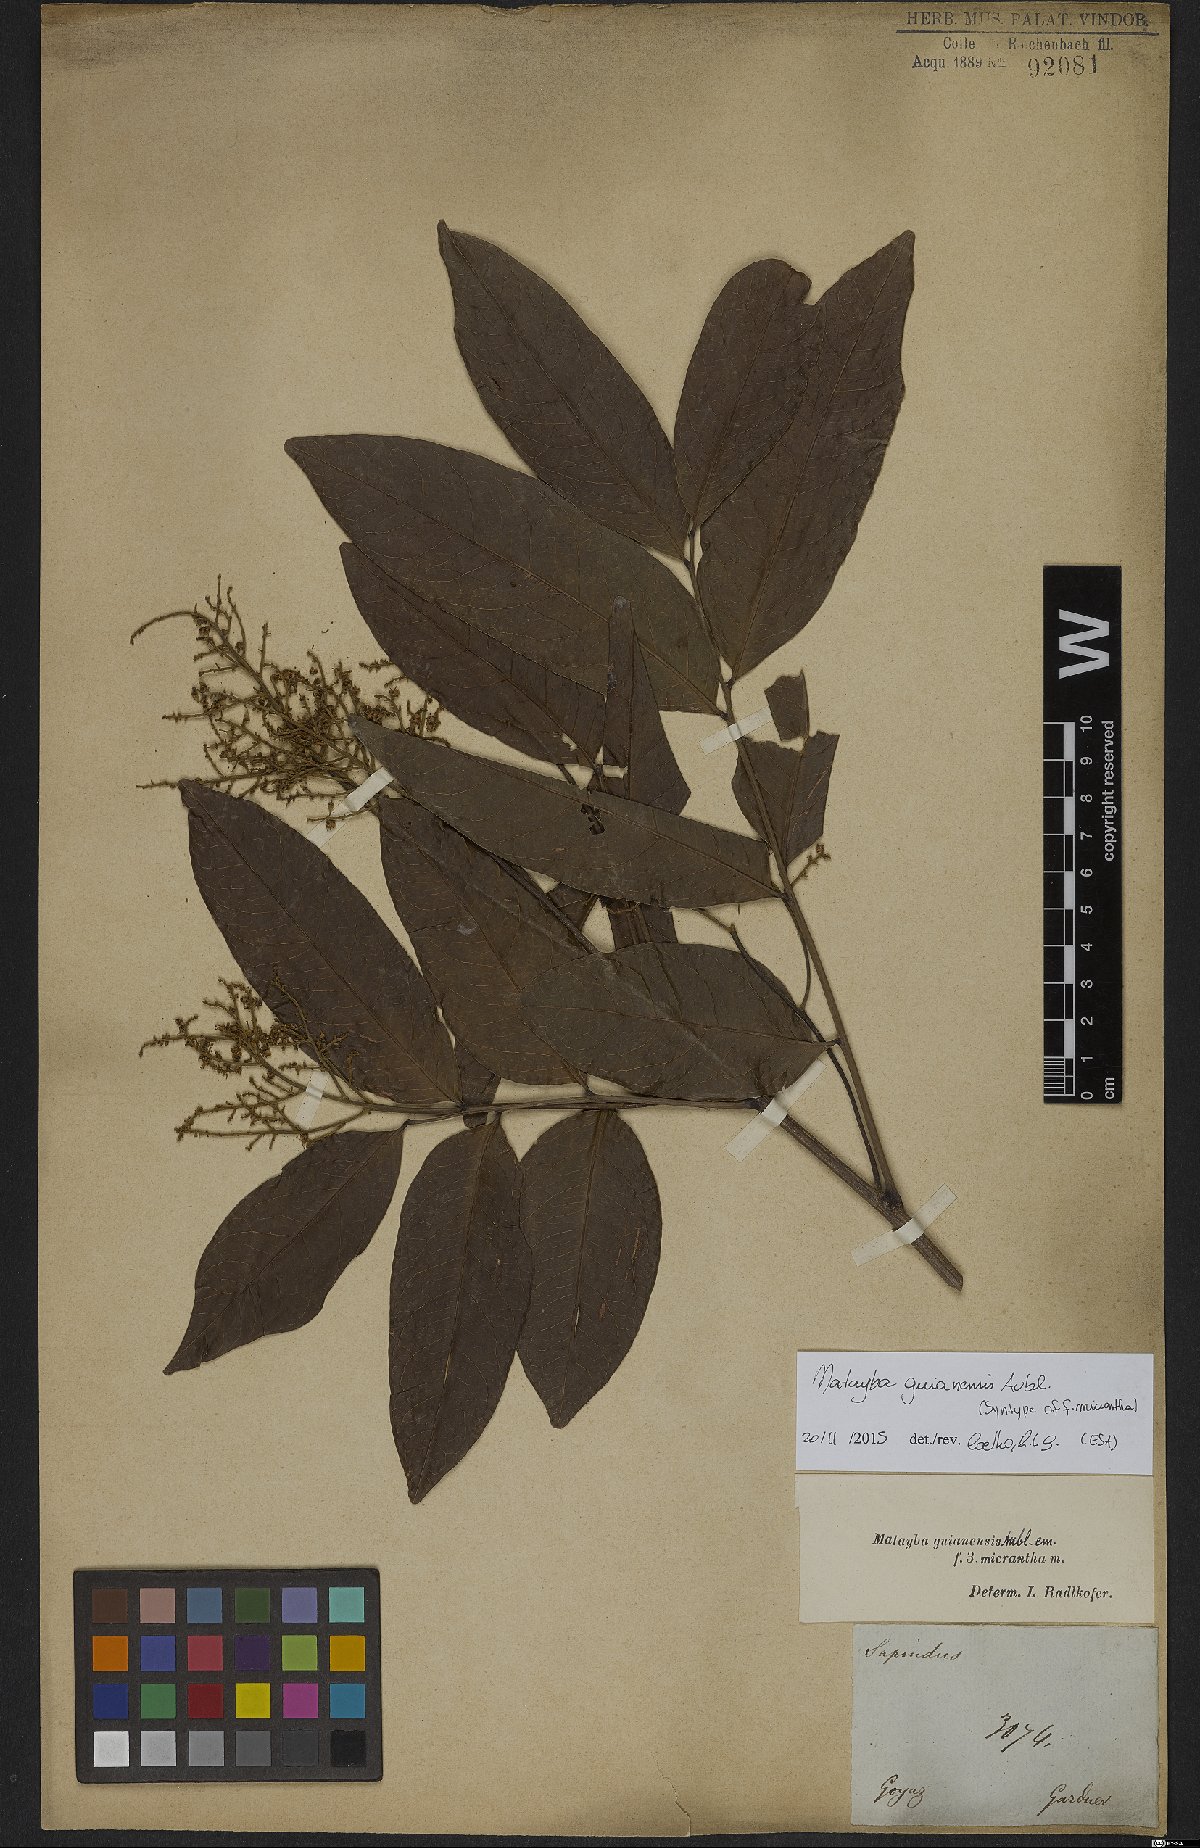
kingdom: Plantae
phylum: Tracheophyta
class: Magnoliopsida
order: Sapindales
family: Sapindaceae
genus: Matayba
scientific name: Matayba guianensis
